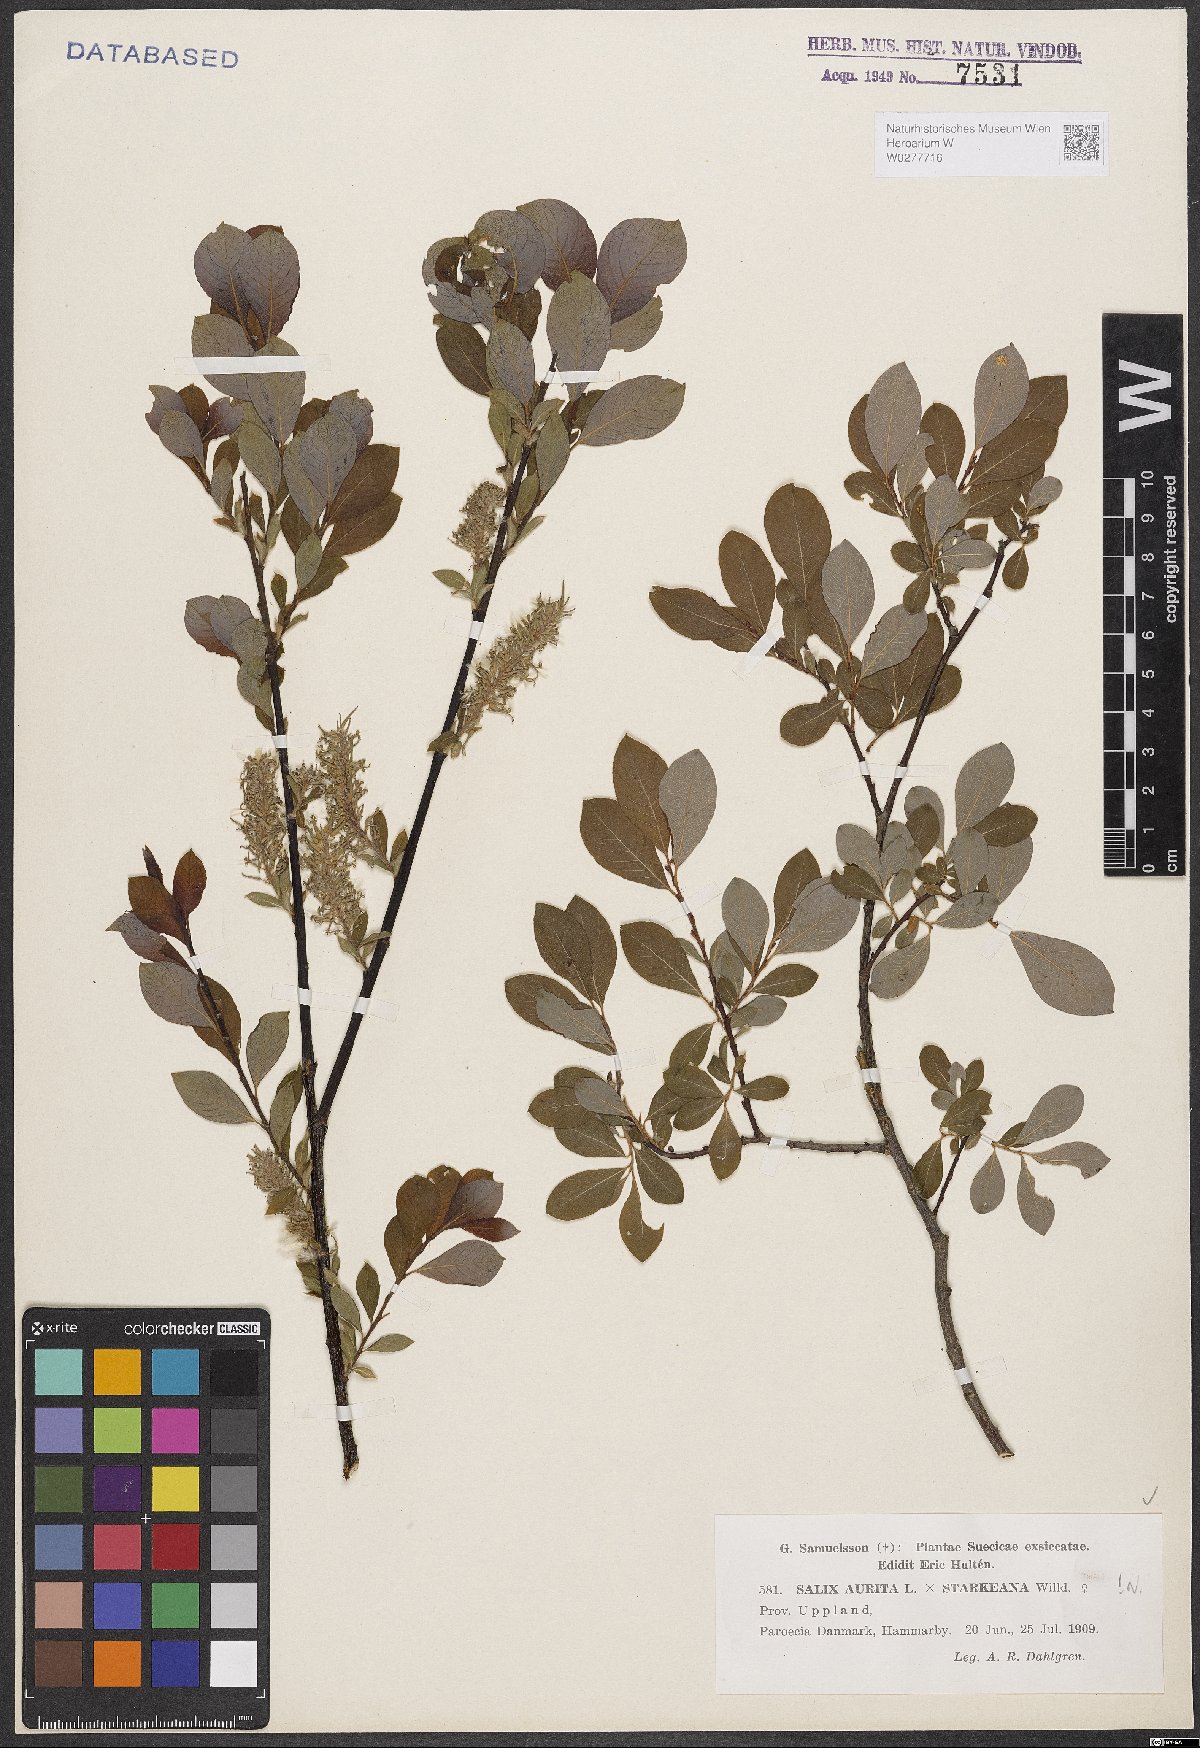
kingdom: Plantae
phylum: Tracheophyta
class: Magnoliopsida
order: Malpighiales
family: Salicaceae
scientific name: Salicaceae
